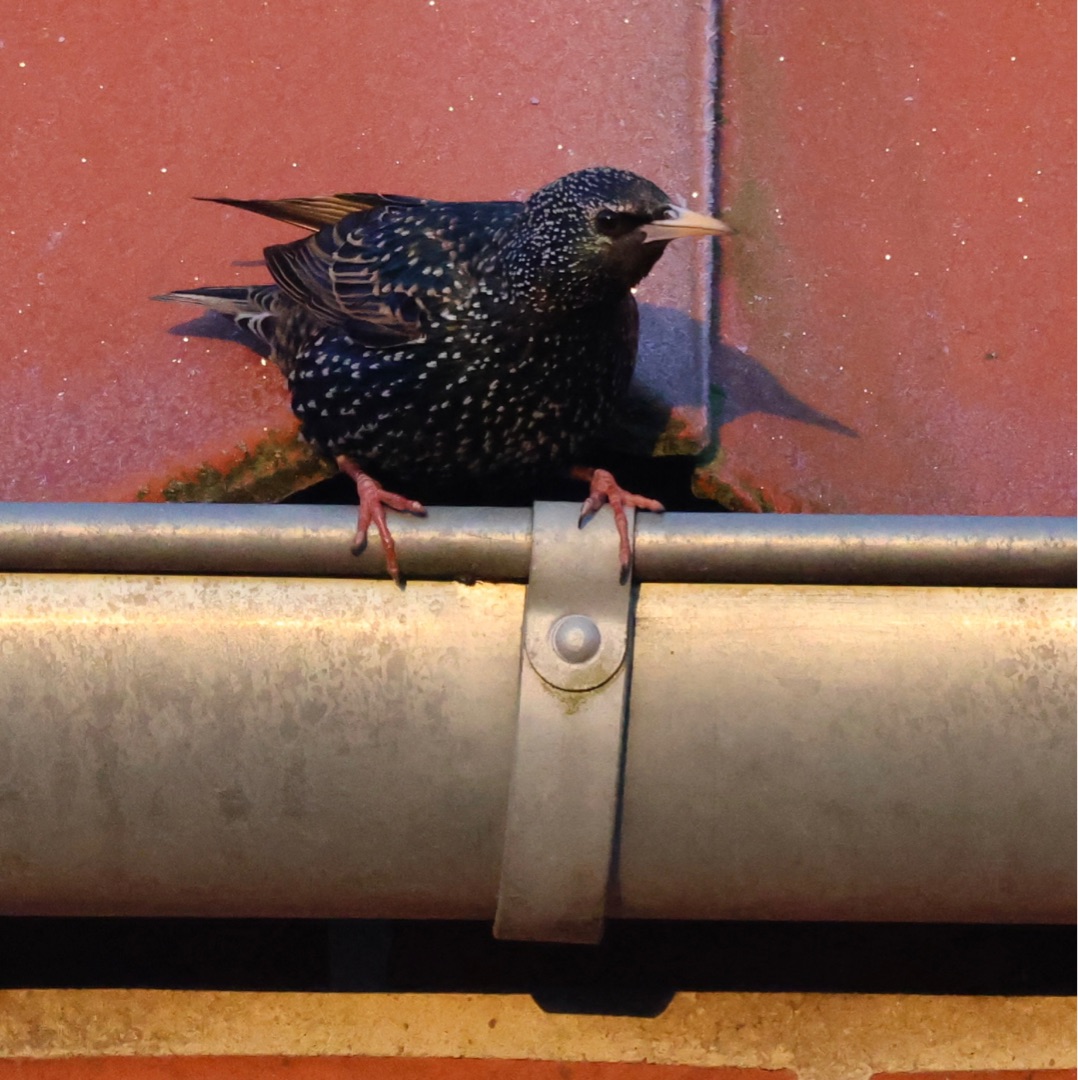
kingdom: Animalia
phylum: Chordata
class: Aves
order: Passeriformes
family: Sturnidae
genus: Sturnus
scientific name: Sturnus vulgaris
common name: Stær
